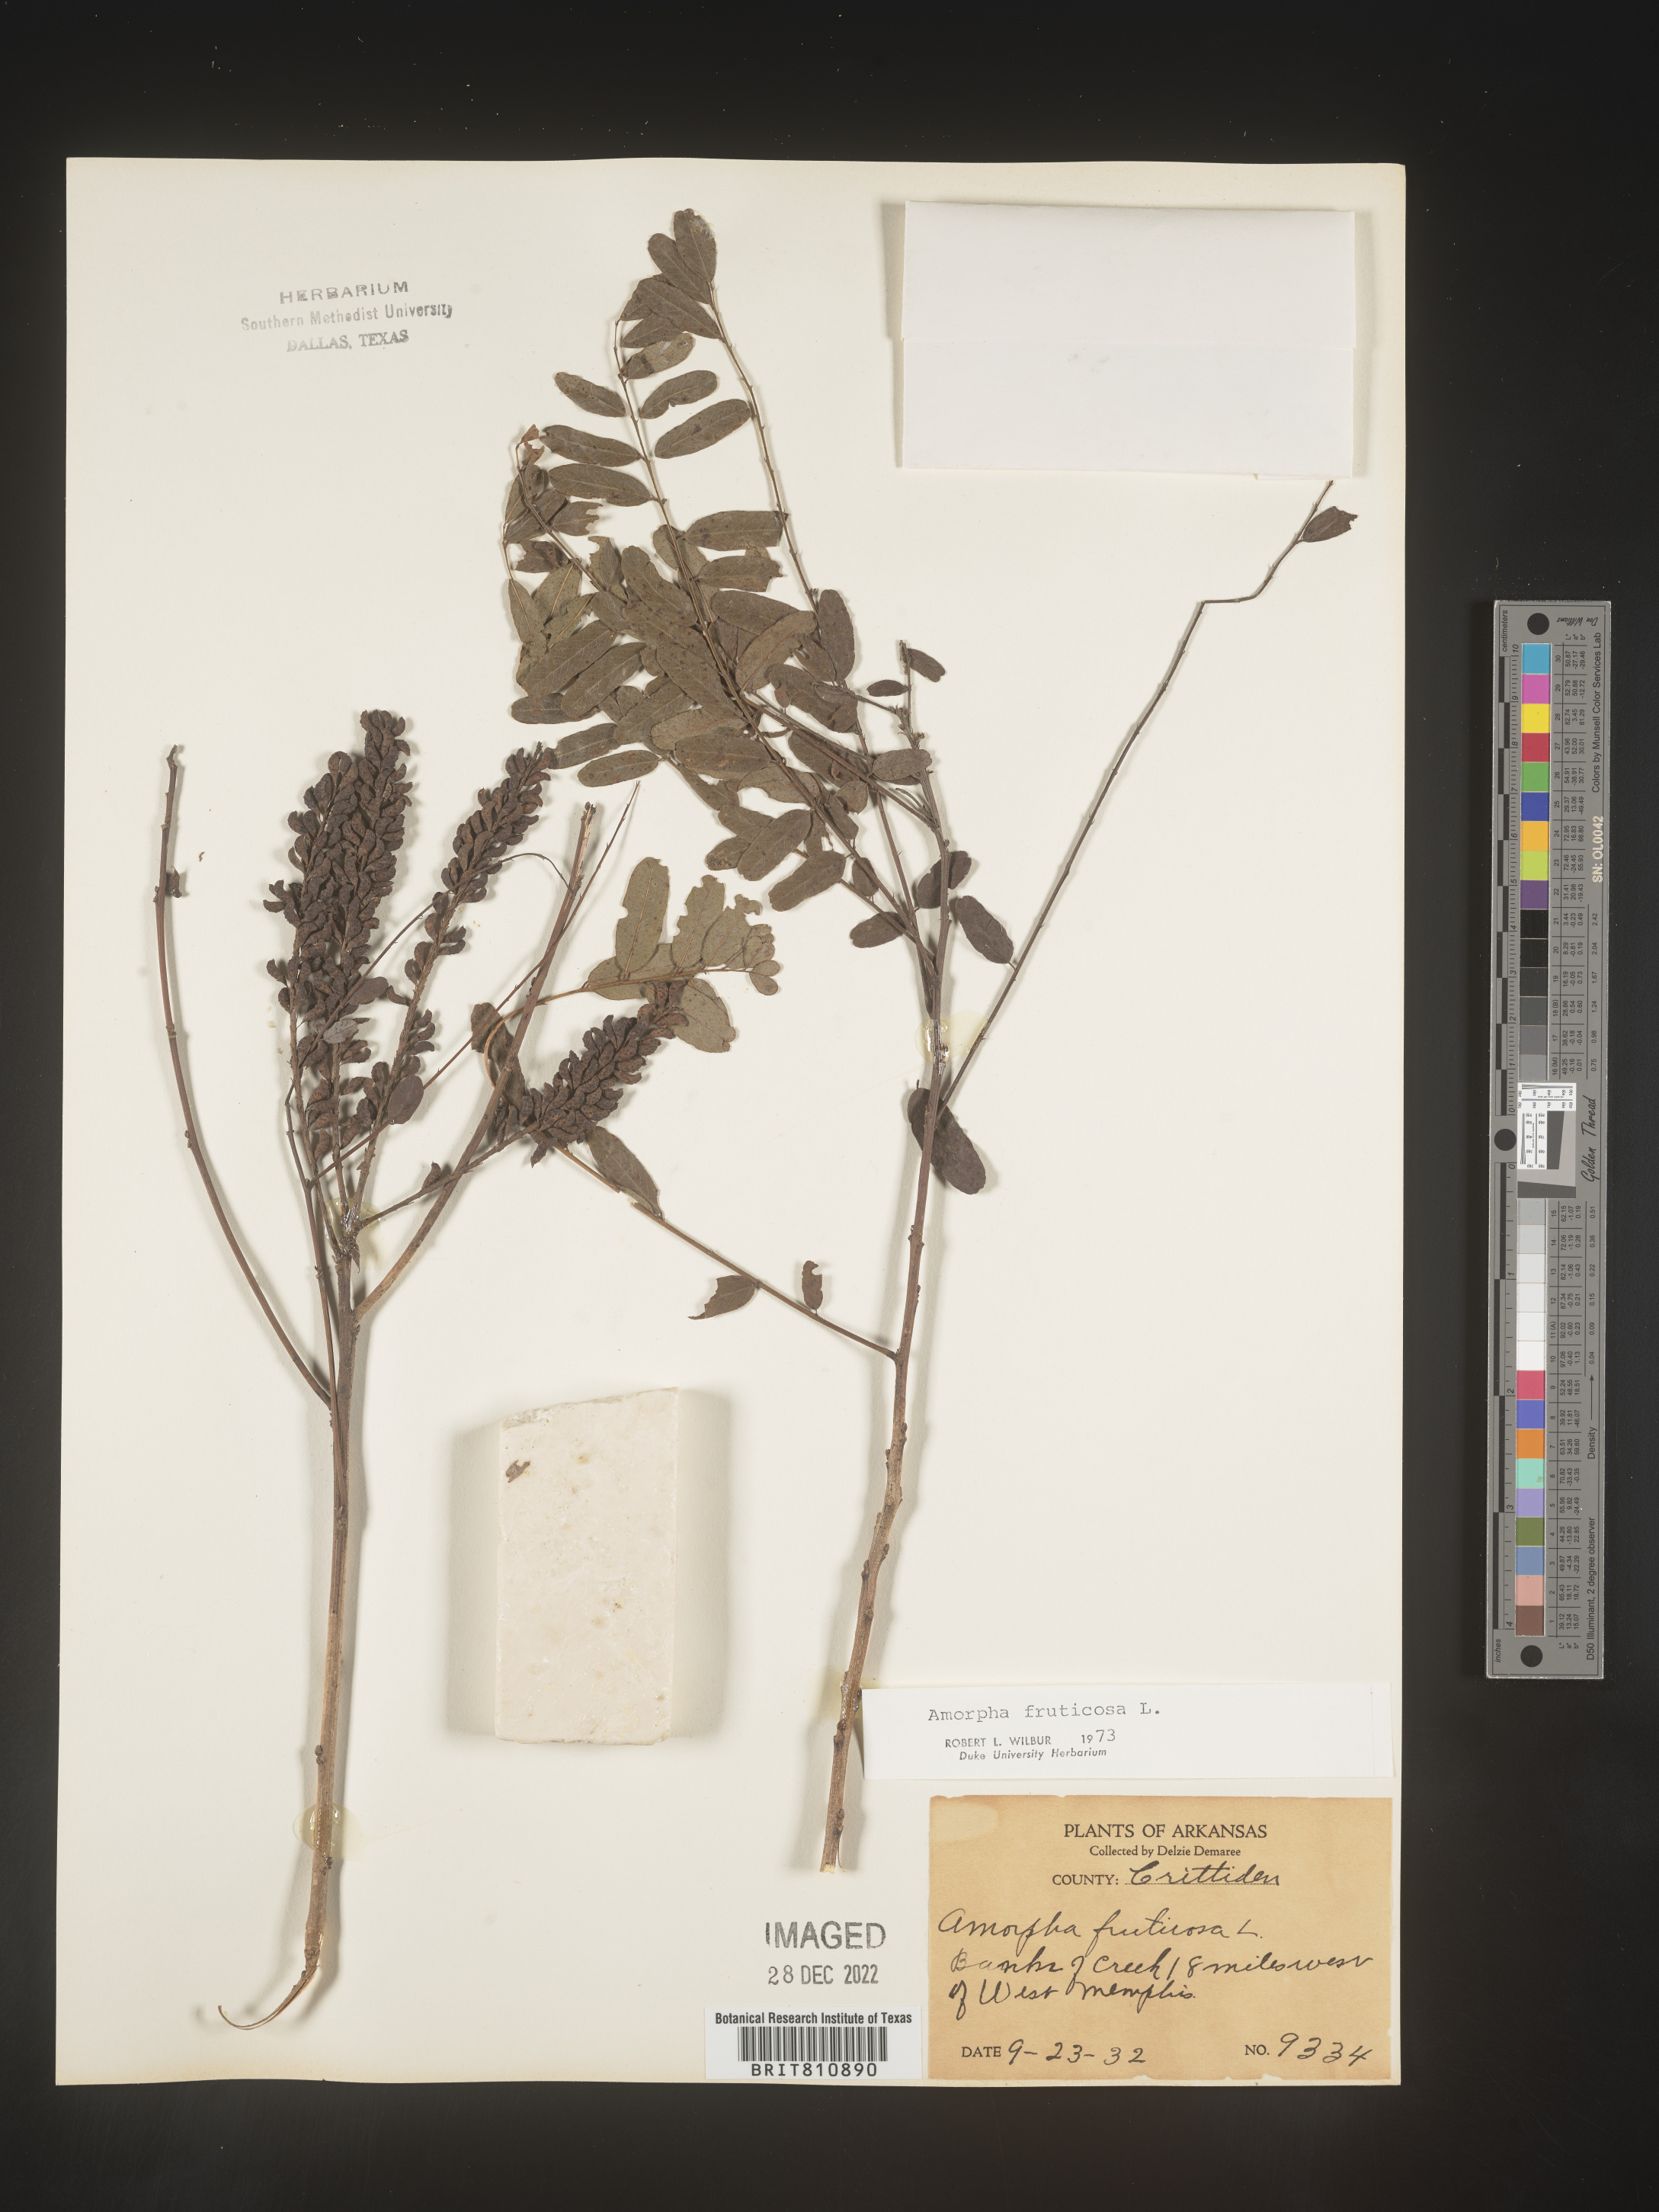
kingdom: Plantae
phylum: Tracheophyta
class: Magnoliopsida
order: Fabales
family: Fabaceae
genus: Amorpha
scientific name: Amorpha fruticosa
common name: False indigo
